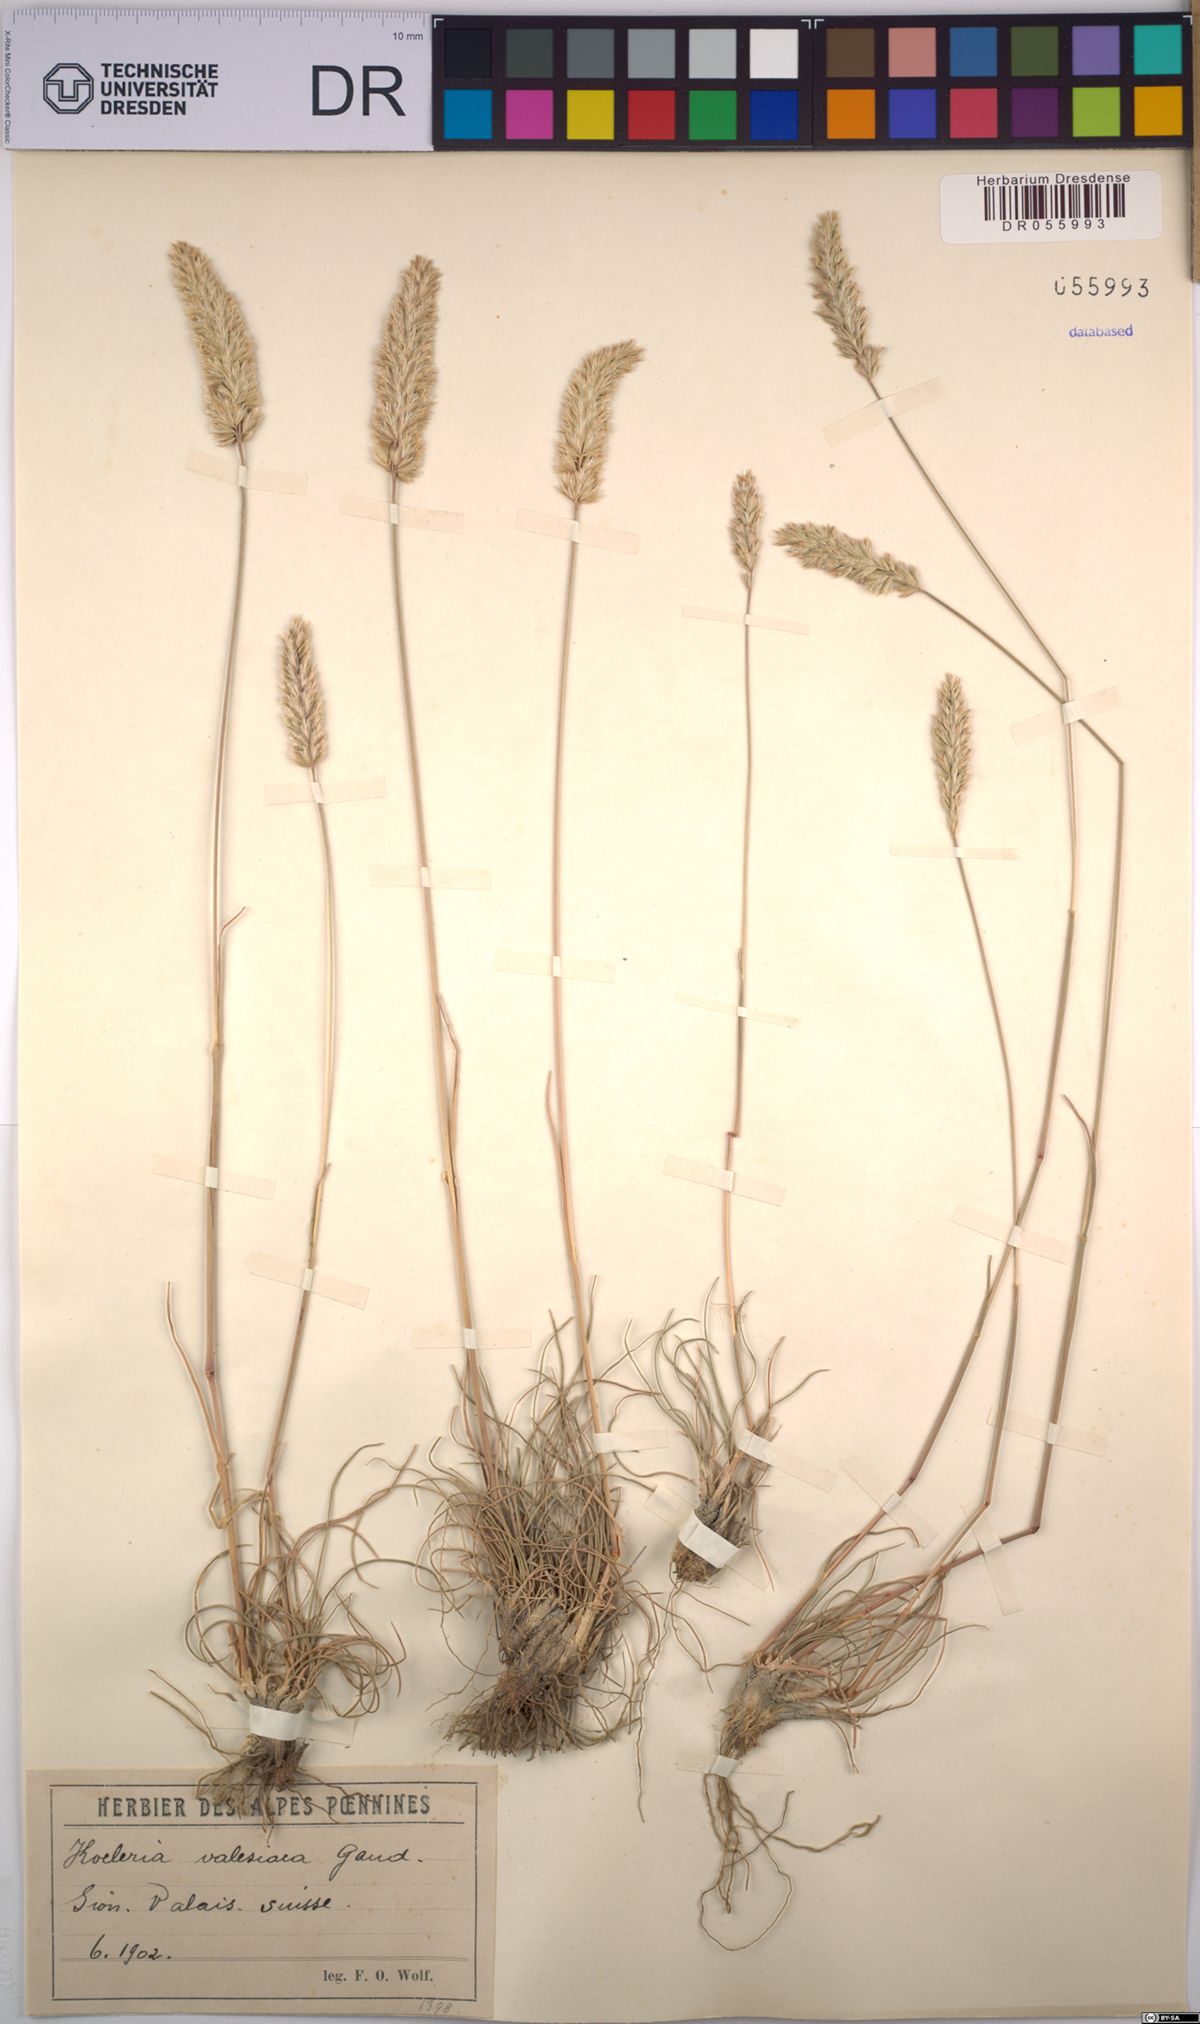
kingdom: Plantae
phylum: Tracheophyta
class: Liliopsida
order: Poales
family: Poaceae
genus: Koeleria
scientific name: Koeleria vallesiana
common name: Somerset hair-grass
